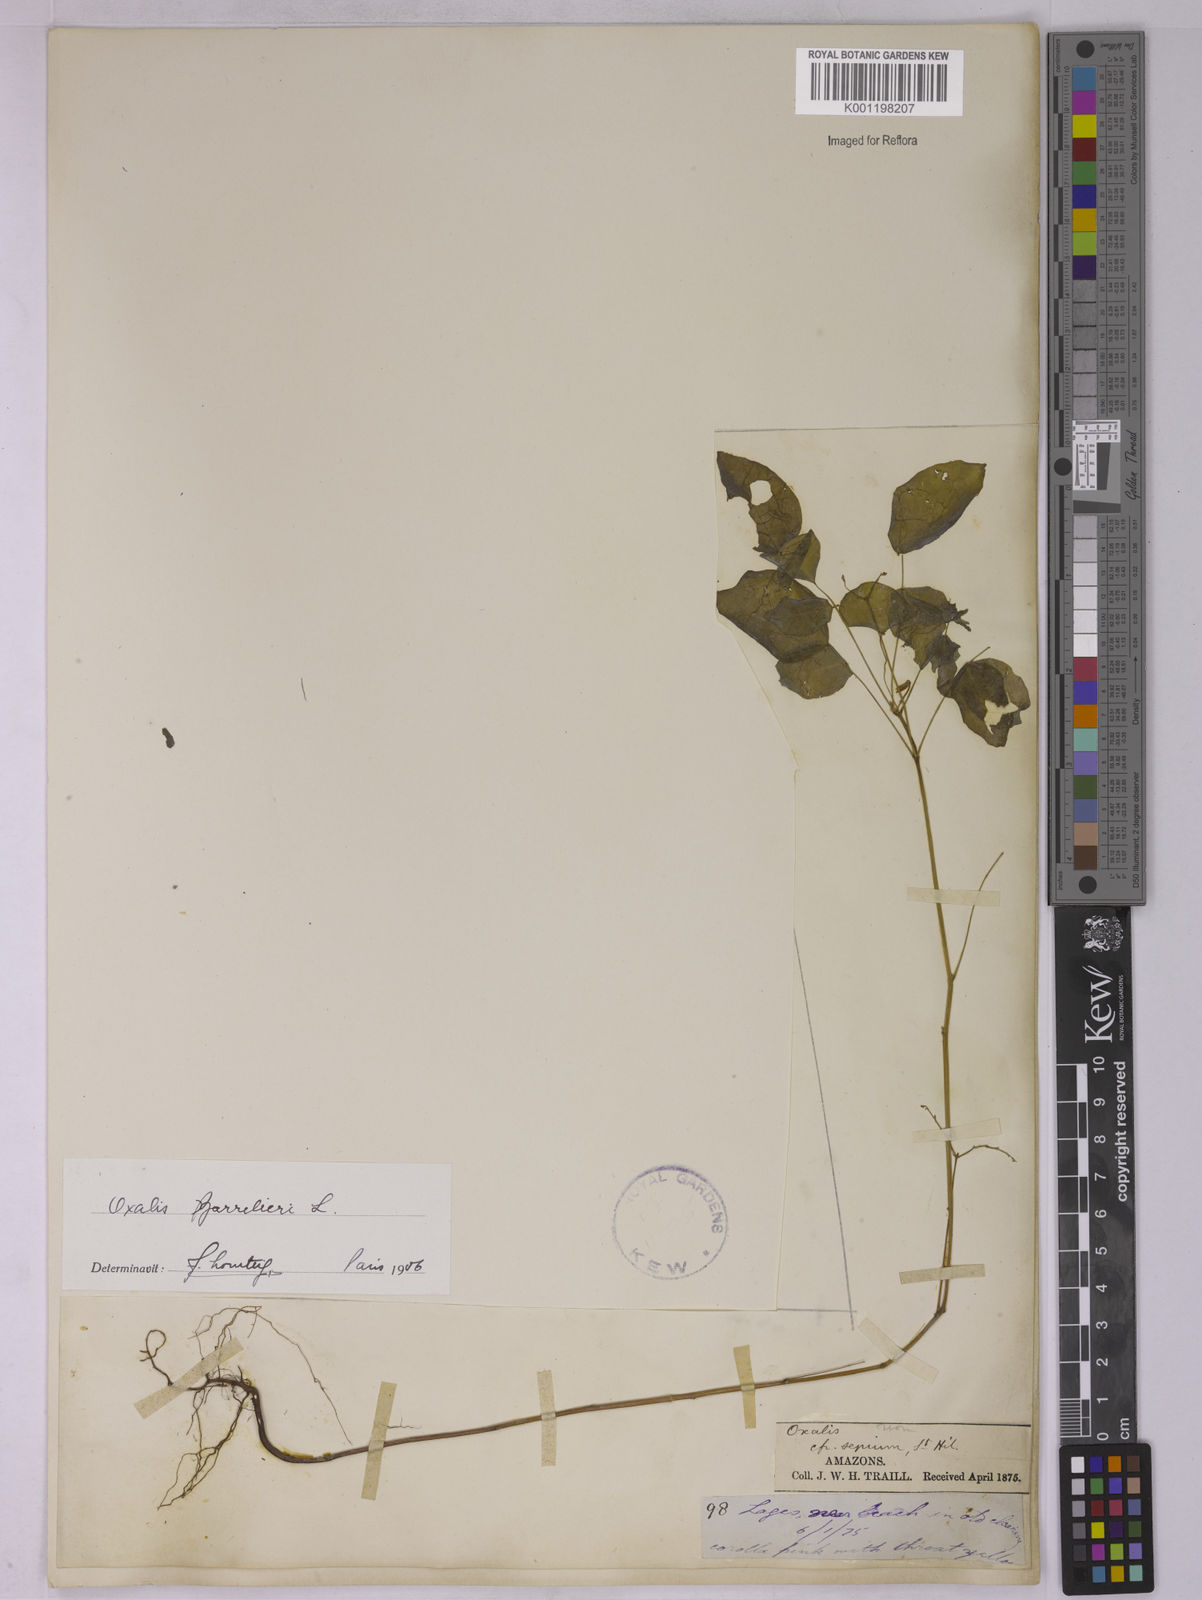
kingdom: Plantae
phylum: Tracheophyta
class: Magnoliopsida
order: Oxalidales
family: Oxalidaceae
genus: Oxalis
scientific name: Oxalis barrelieri
